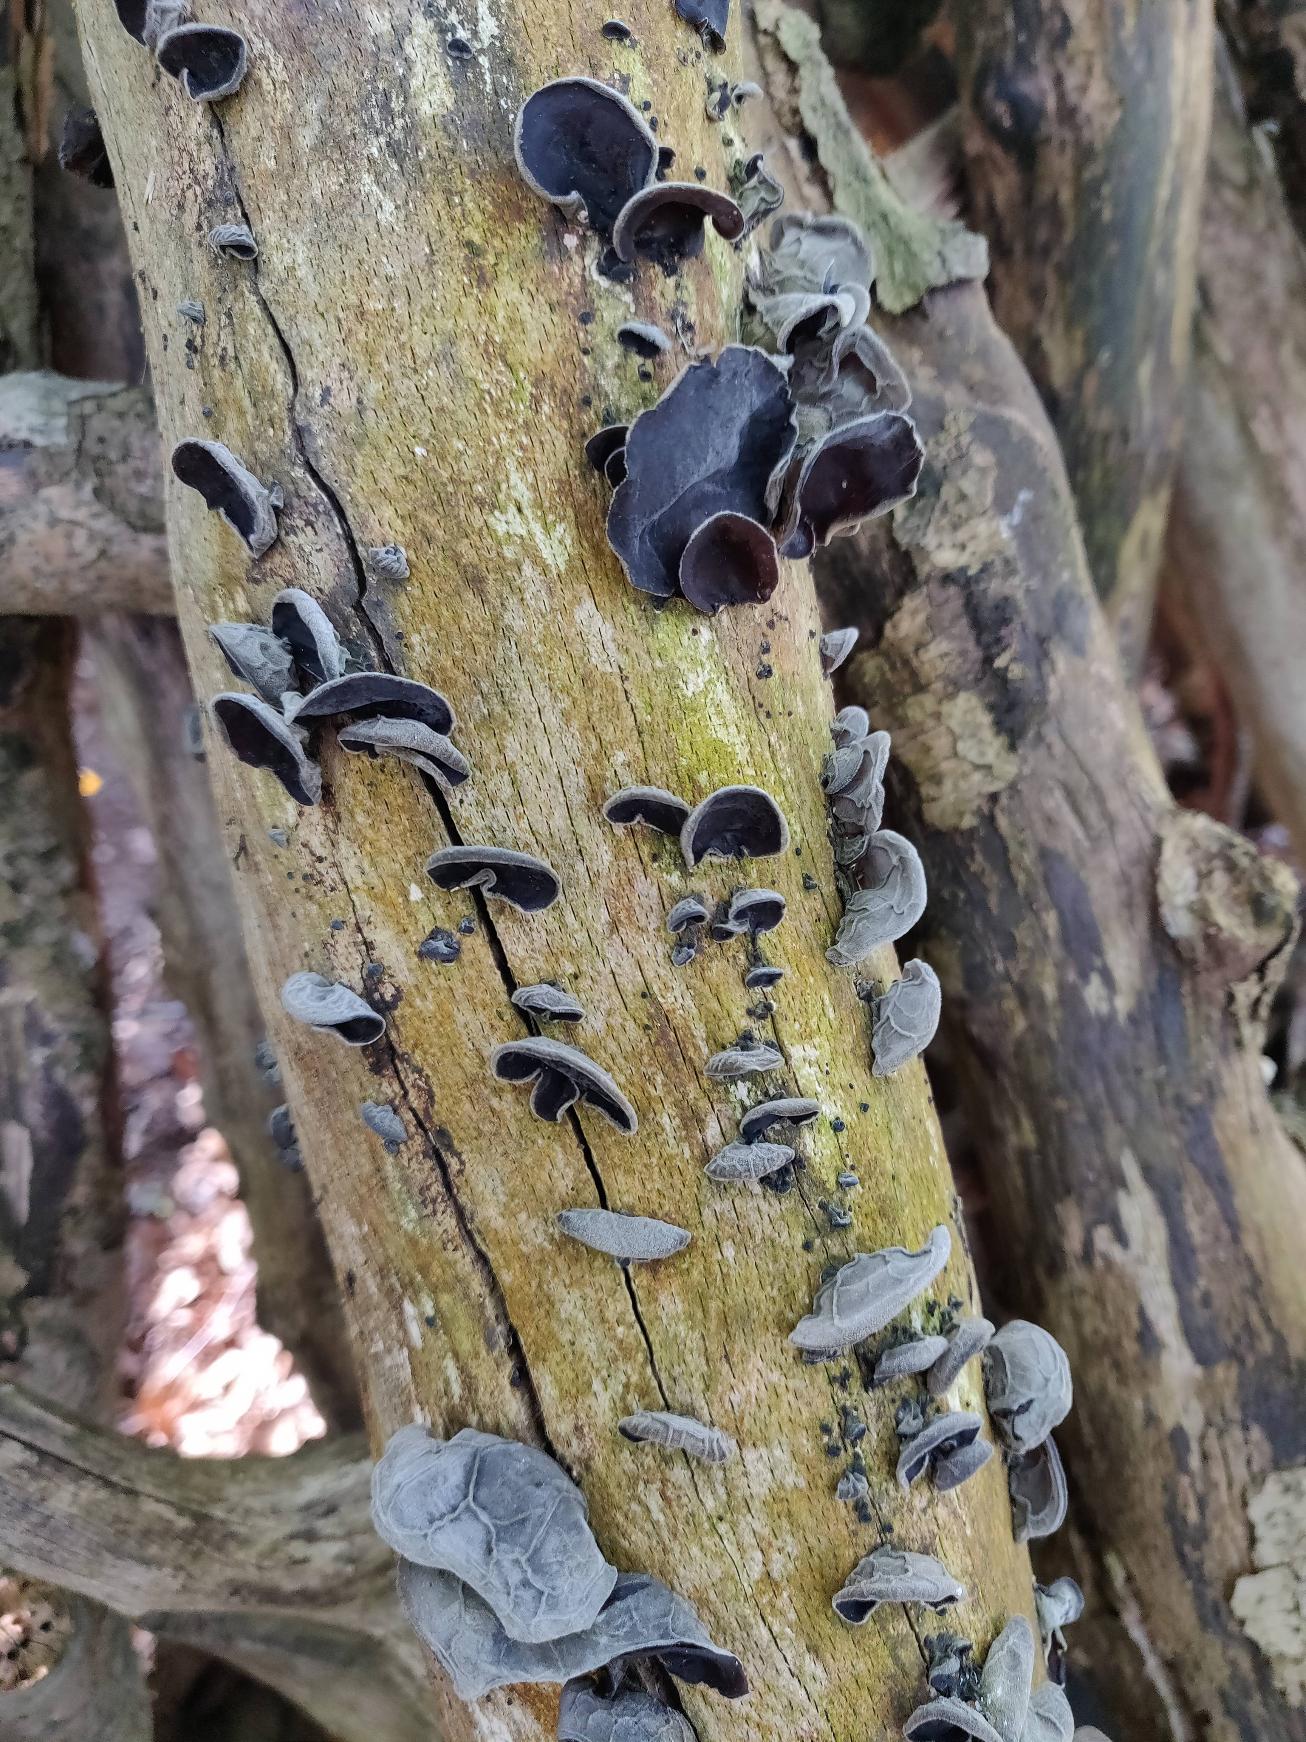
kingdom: Fungi
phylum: Basidiomycota
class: Agaricomycetes
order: Auriculariales
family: Auriculariaceae
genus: Auricularia
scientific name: Auricularia auricula-judae
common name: Almindelig judasøre
